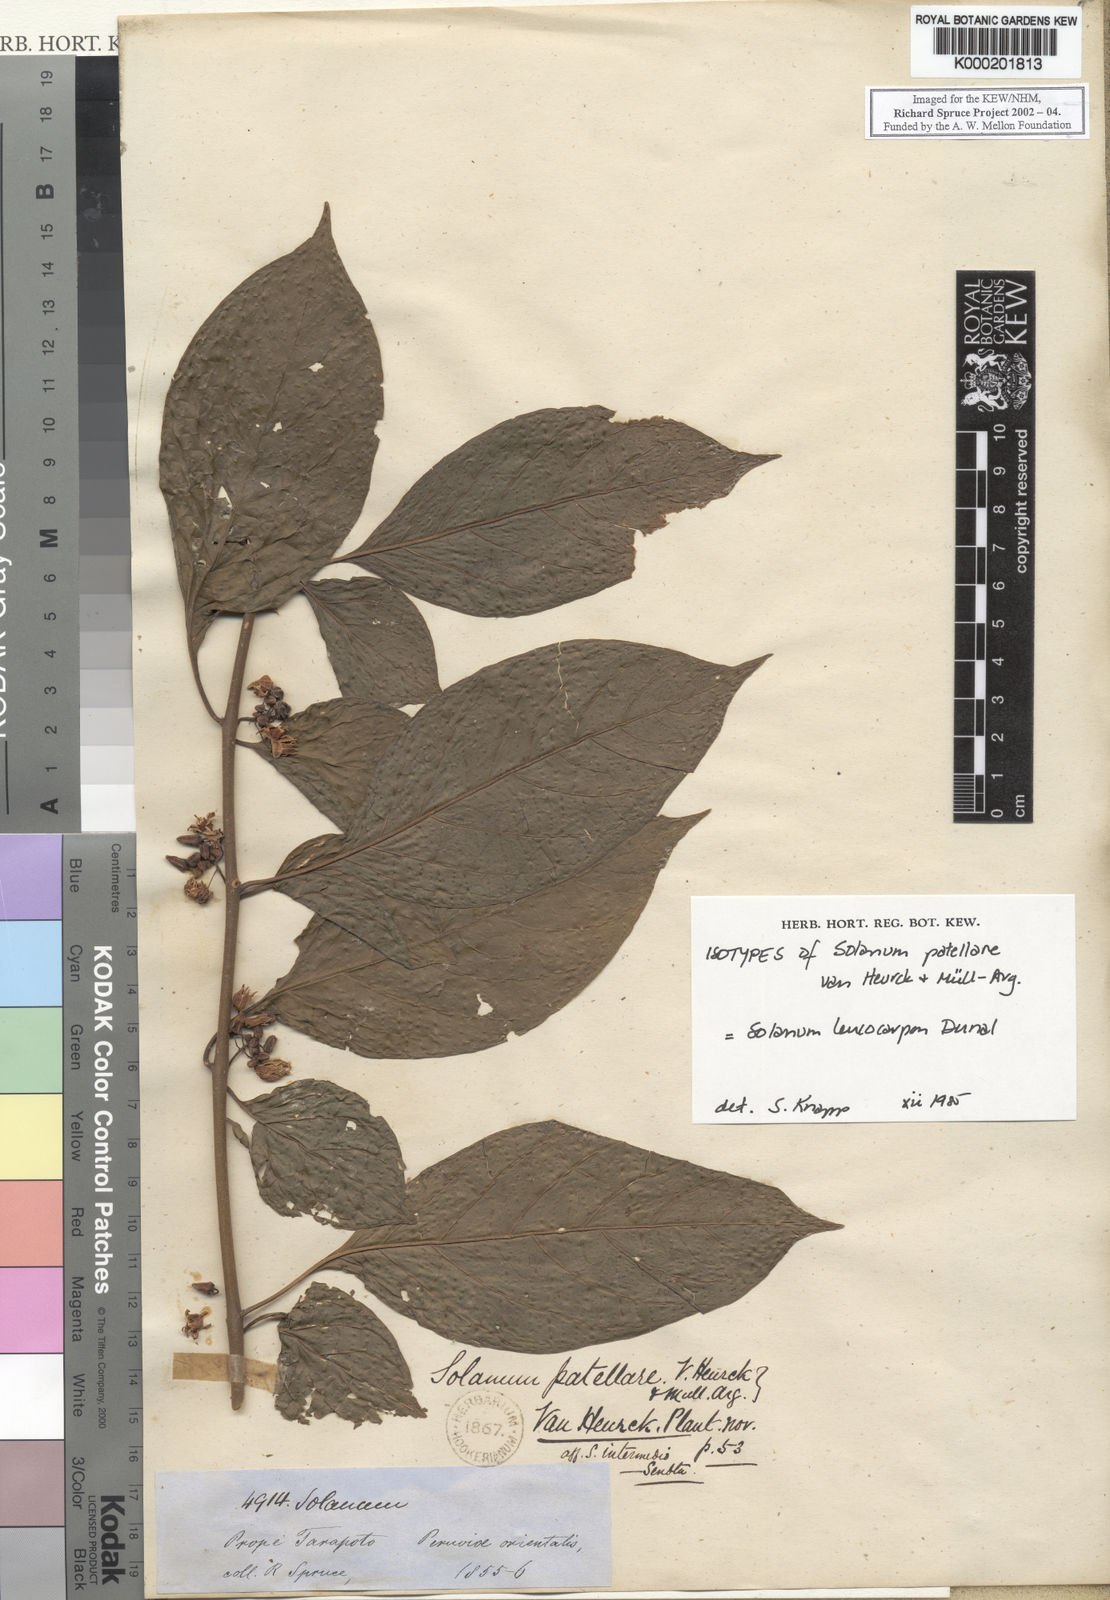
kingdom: Plantae
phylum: Tracheophyta
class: Magnoliopsida
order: Solanales
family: Solanaceae
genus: Solanum
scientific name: Solanum leucocarpon
